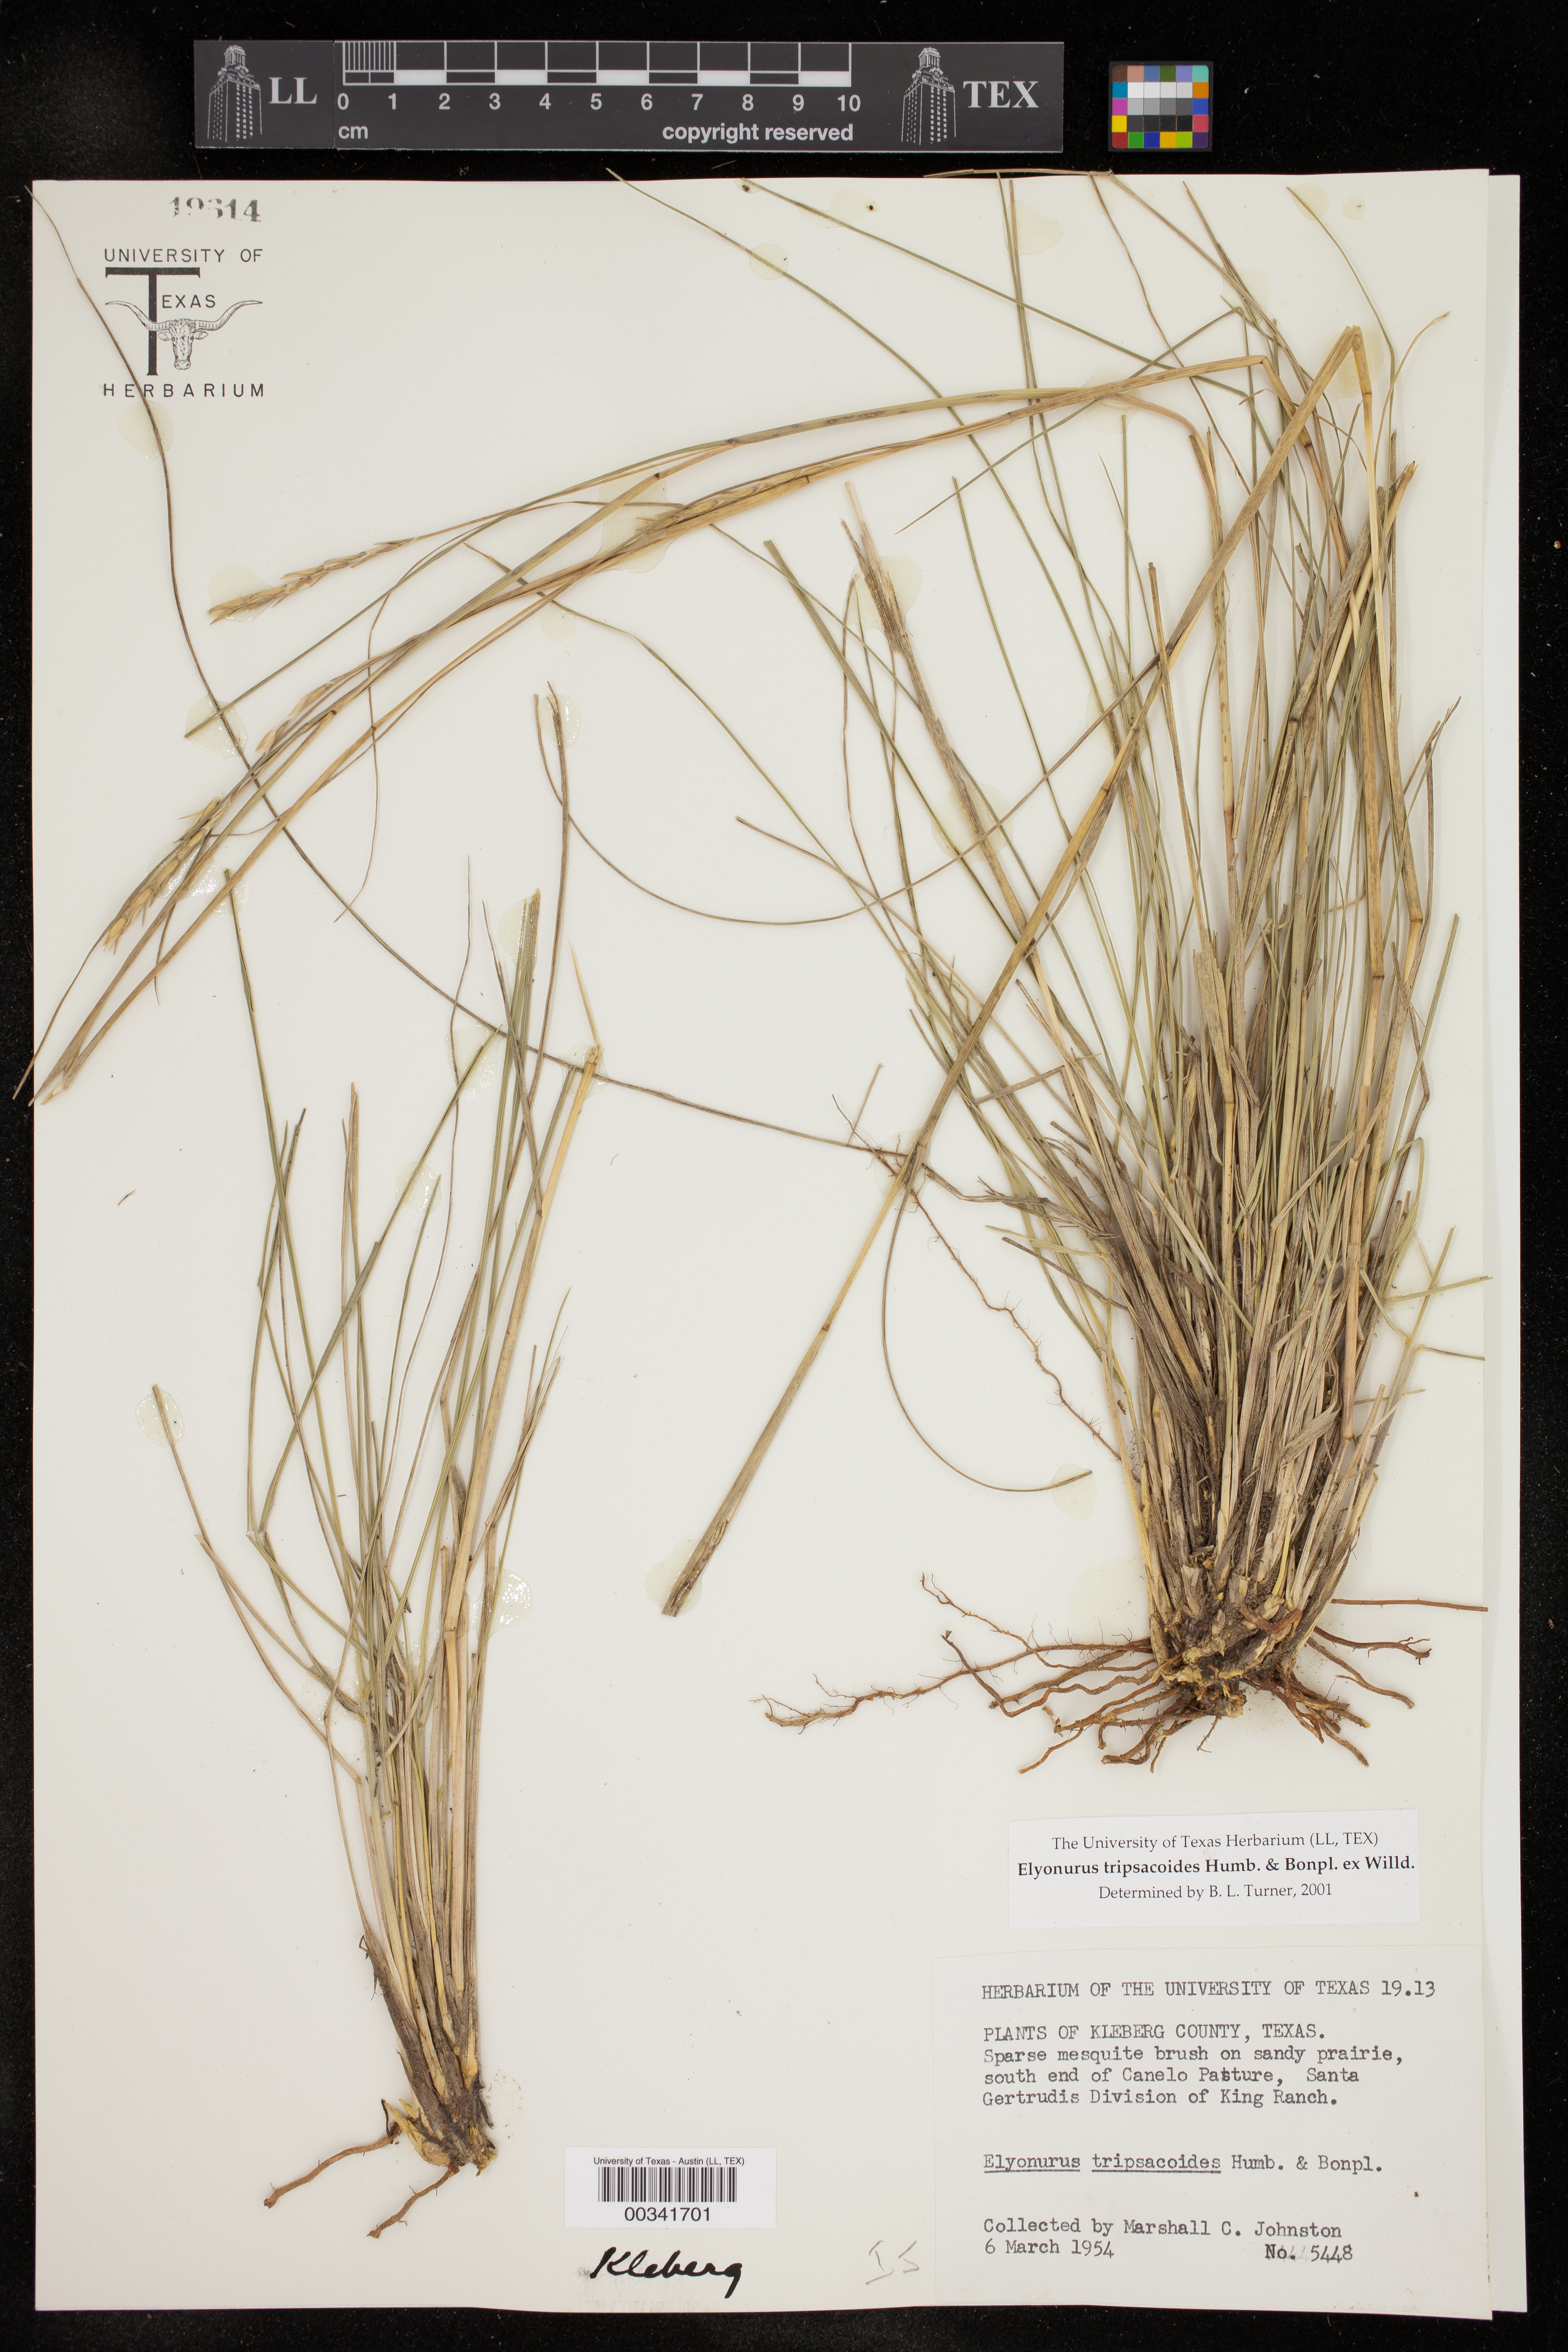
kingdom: Plantae
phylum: Tracheophyta
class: Liliopsida
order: Poales
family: Poaceae
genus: Elionurus
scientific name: Elionurus tripsacoides
